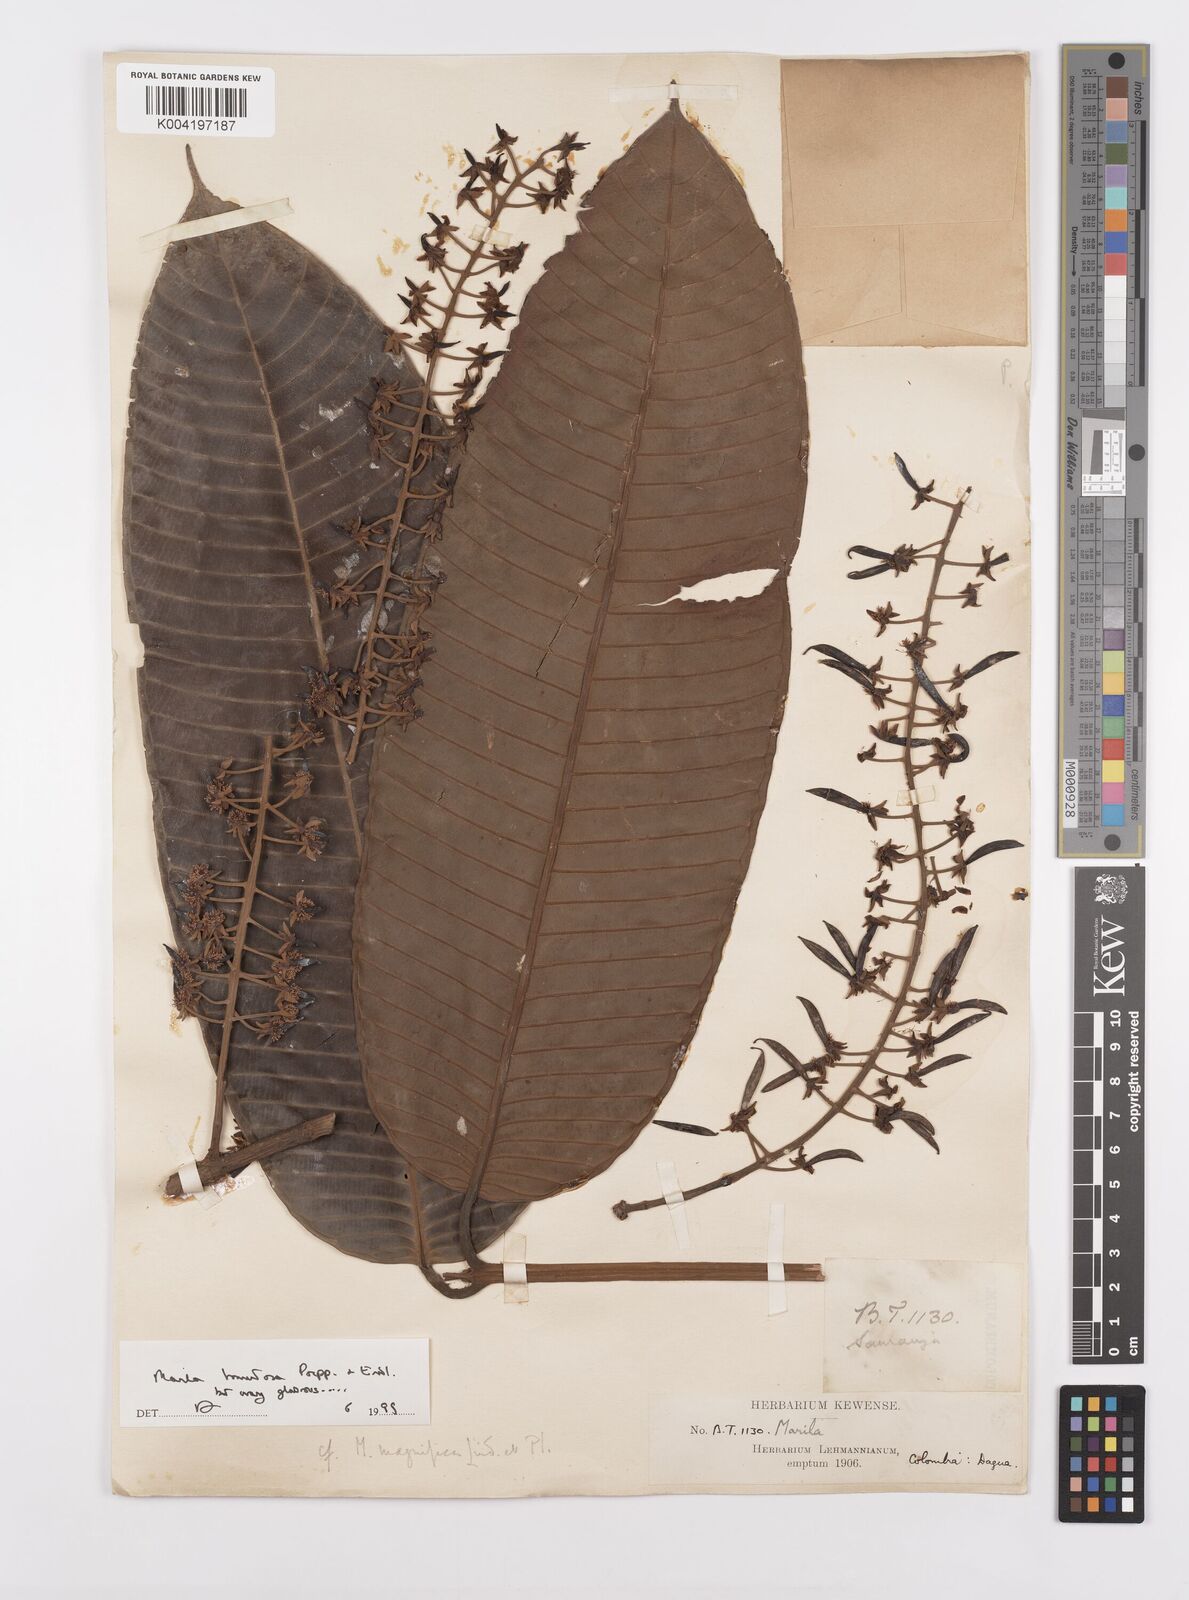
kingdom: Plantae
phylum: Tracheophyta
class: Magnoliopsida
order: Malpighiales
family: Calophyllaceae
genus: Marila
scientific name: Marila tomentosa
